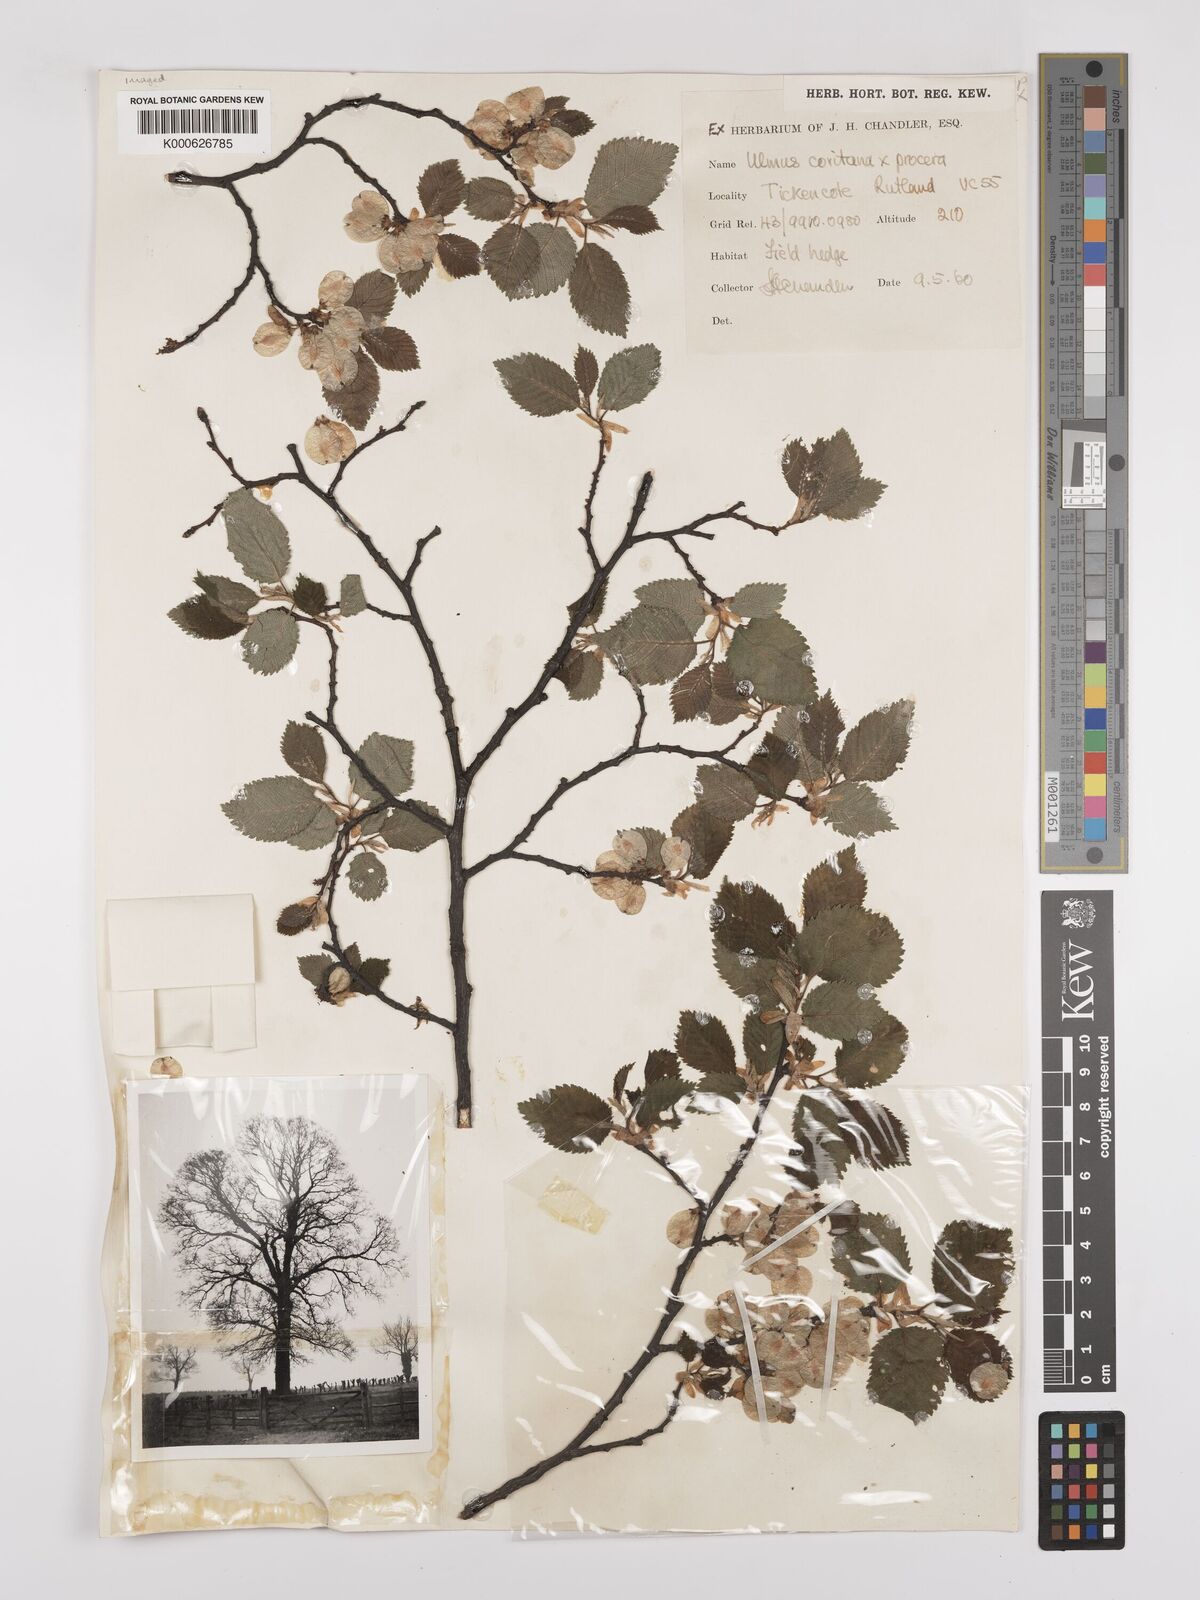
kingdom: Plantae
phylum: Tracheophyta
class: Magnoliopsida
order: Rosales
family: Ulmaceae
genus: Ulmus
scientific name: Ulmus
